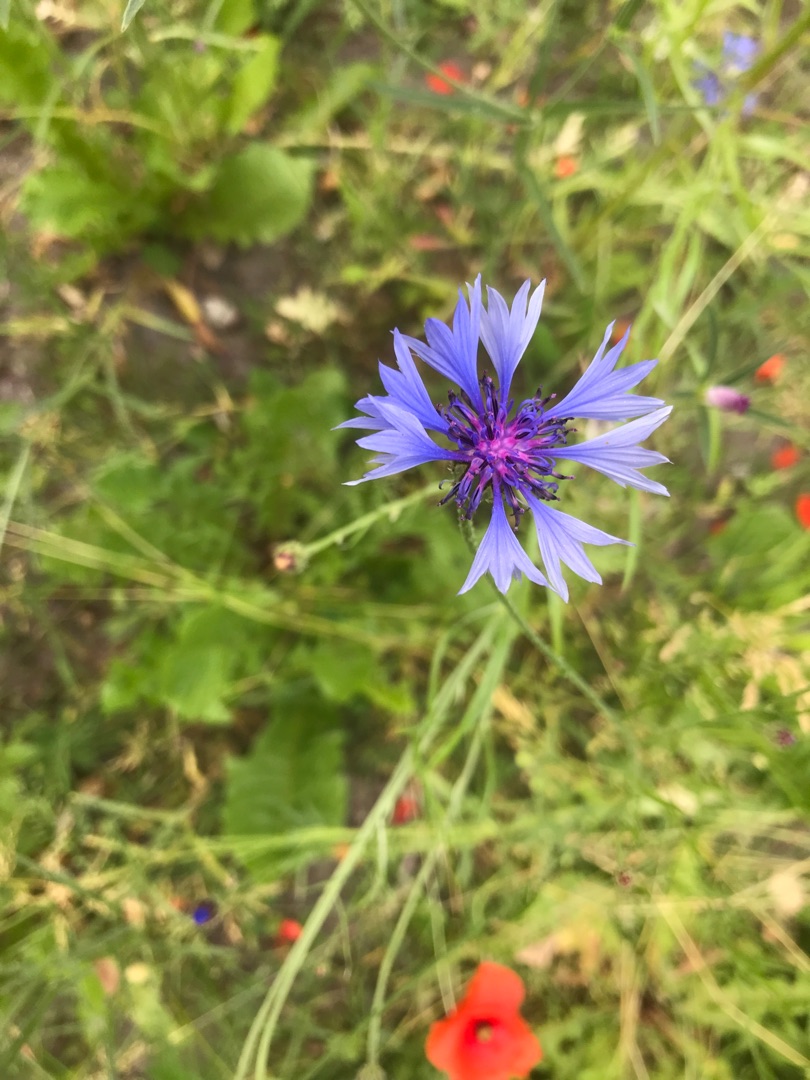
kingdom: Plantae
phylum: Tracheophyta
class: Magnoliopsida
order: Asterales
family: Asteraceae
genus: Centaurea
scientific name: Centaurea cyanus
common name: Kornblomst
